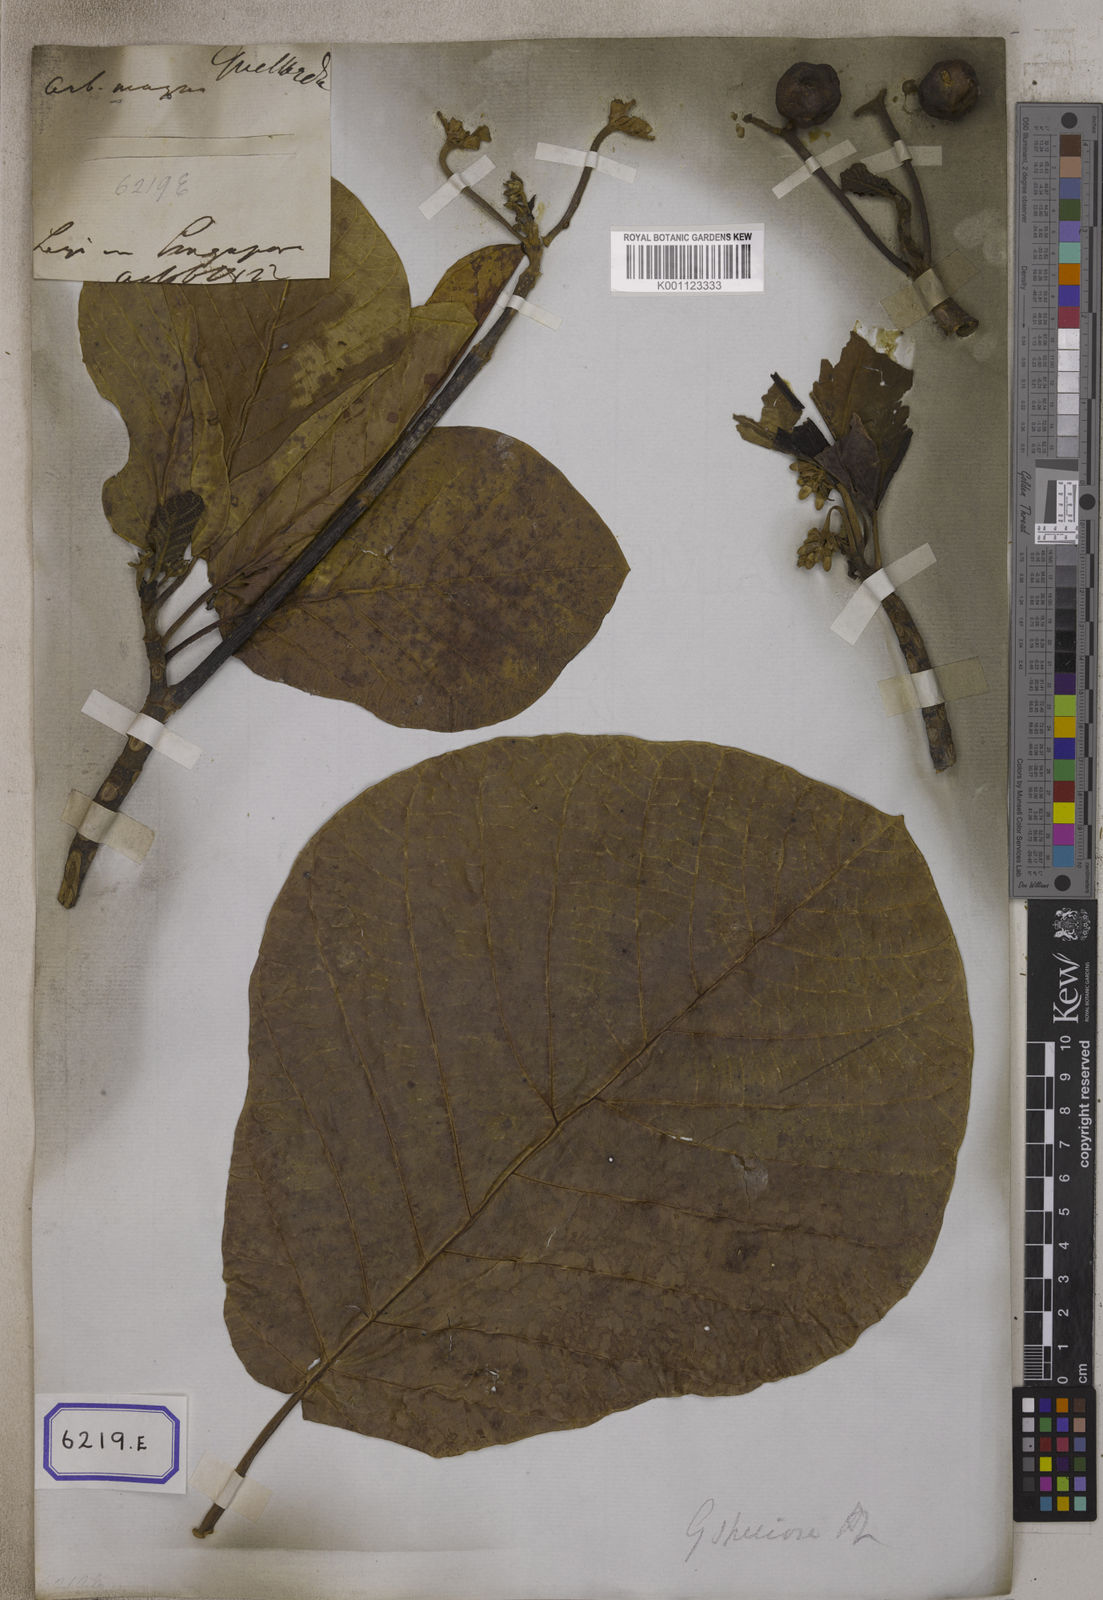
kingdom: Plantae
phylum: Tracheophyta
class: Magnoliopsida
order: Gentianales
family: Rubiaceae
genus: Guettarda
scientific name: Guettarda speciosa
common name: Sea randa
